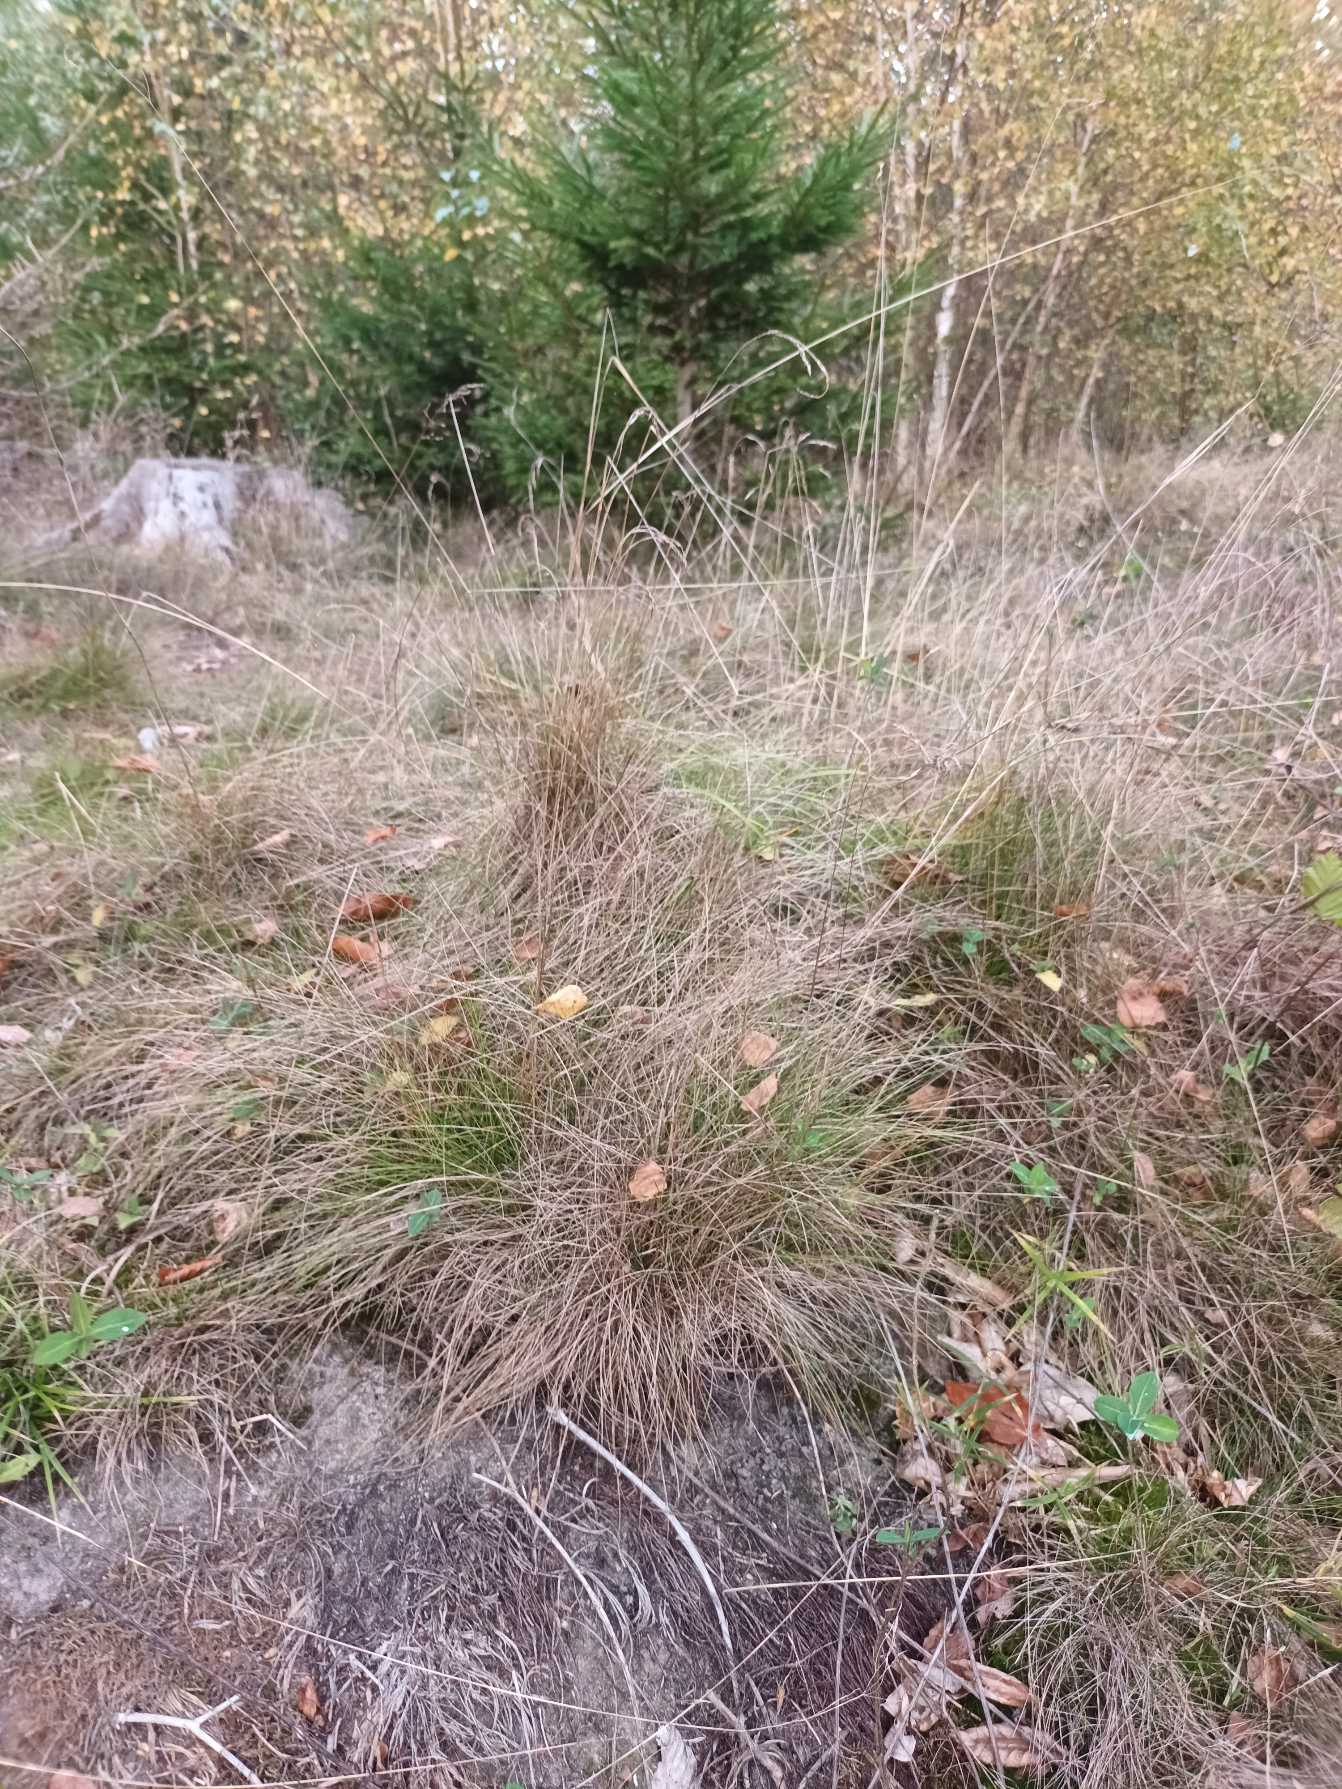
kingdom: Plantae
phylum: Tracheophyta
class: Liliopsida
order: Poales
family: Poaceae
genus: Festuca
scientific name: Festuca ovina
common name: Fåre-svingel
